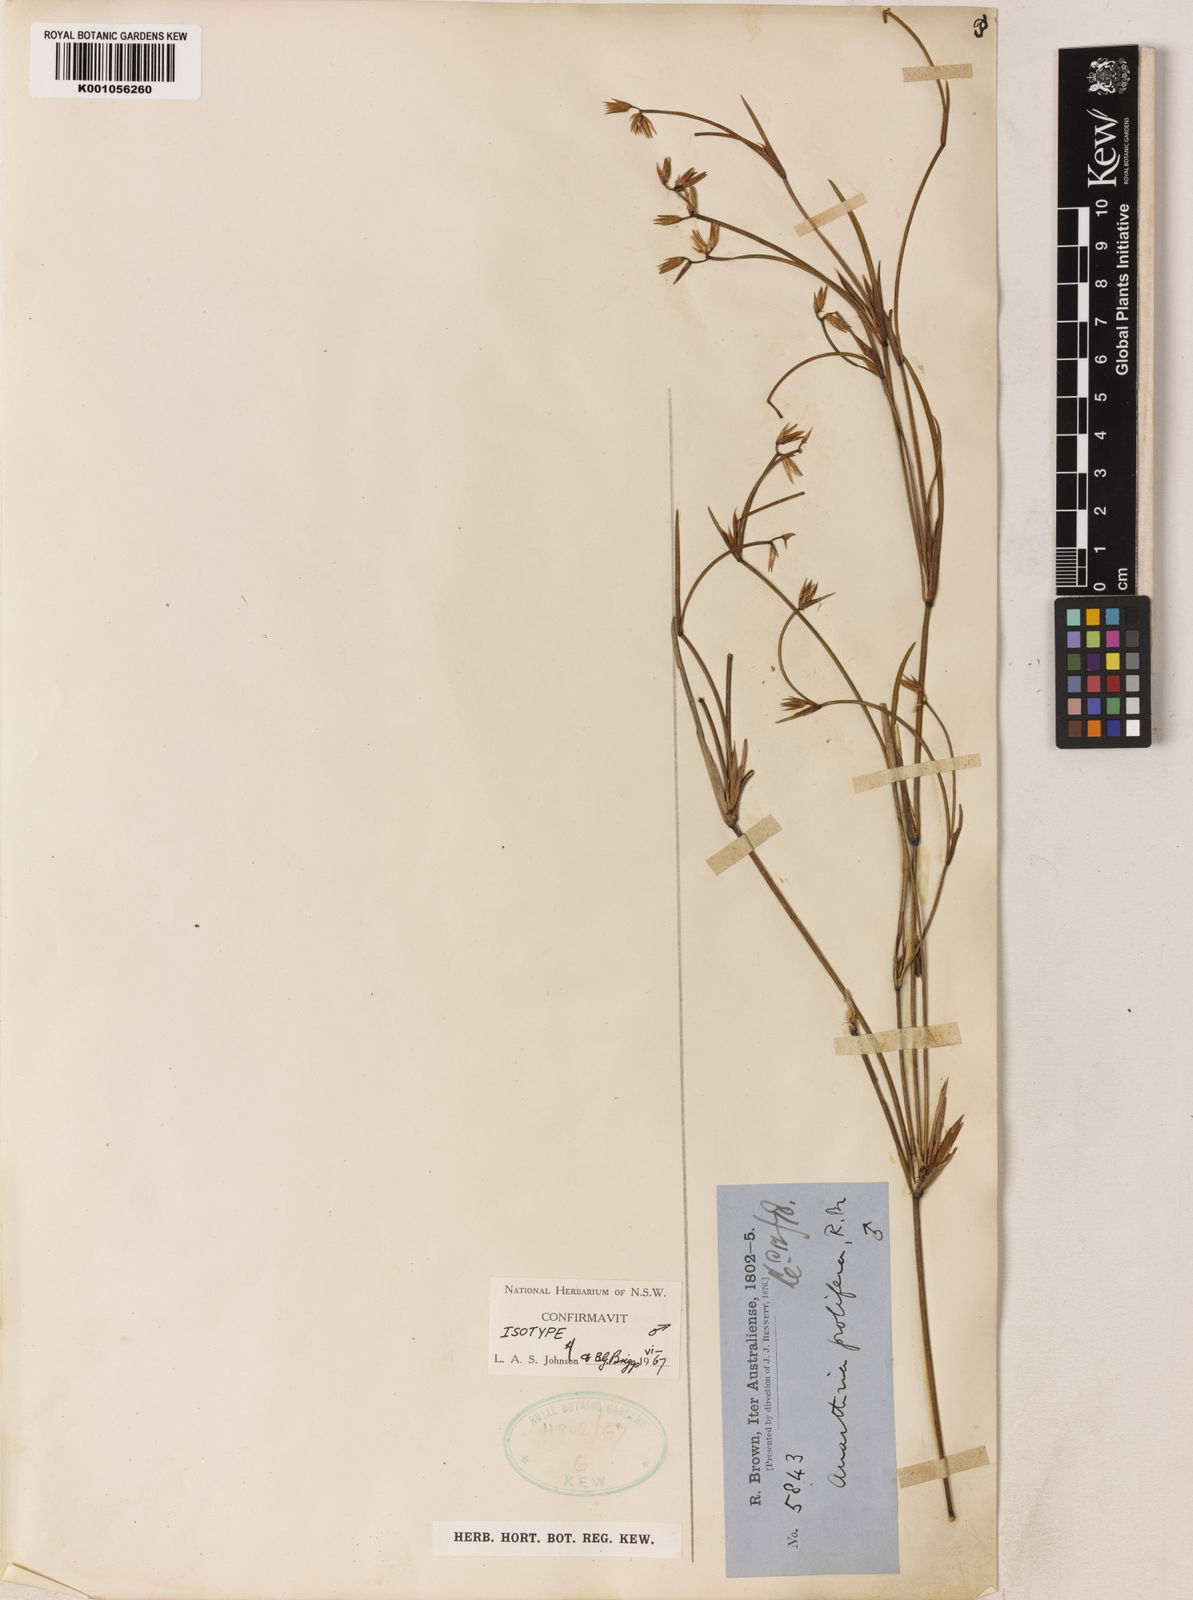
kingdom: Plantae
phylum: Tracheophyta
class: Liliopsida
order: Poales
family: Restionaceae
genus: Anarthria
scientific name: Anarthria prolifera
